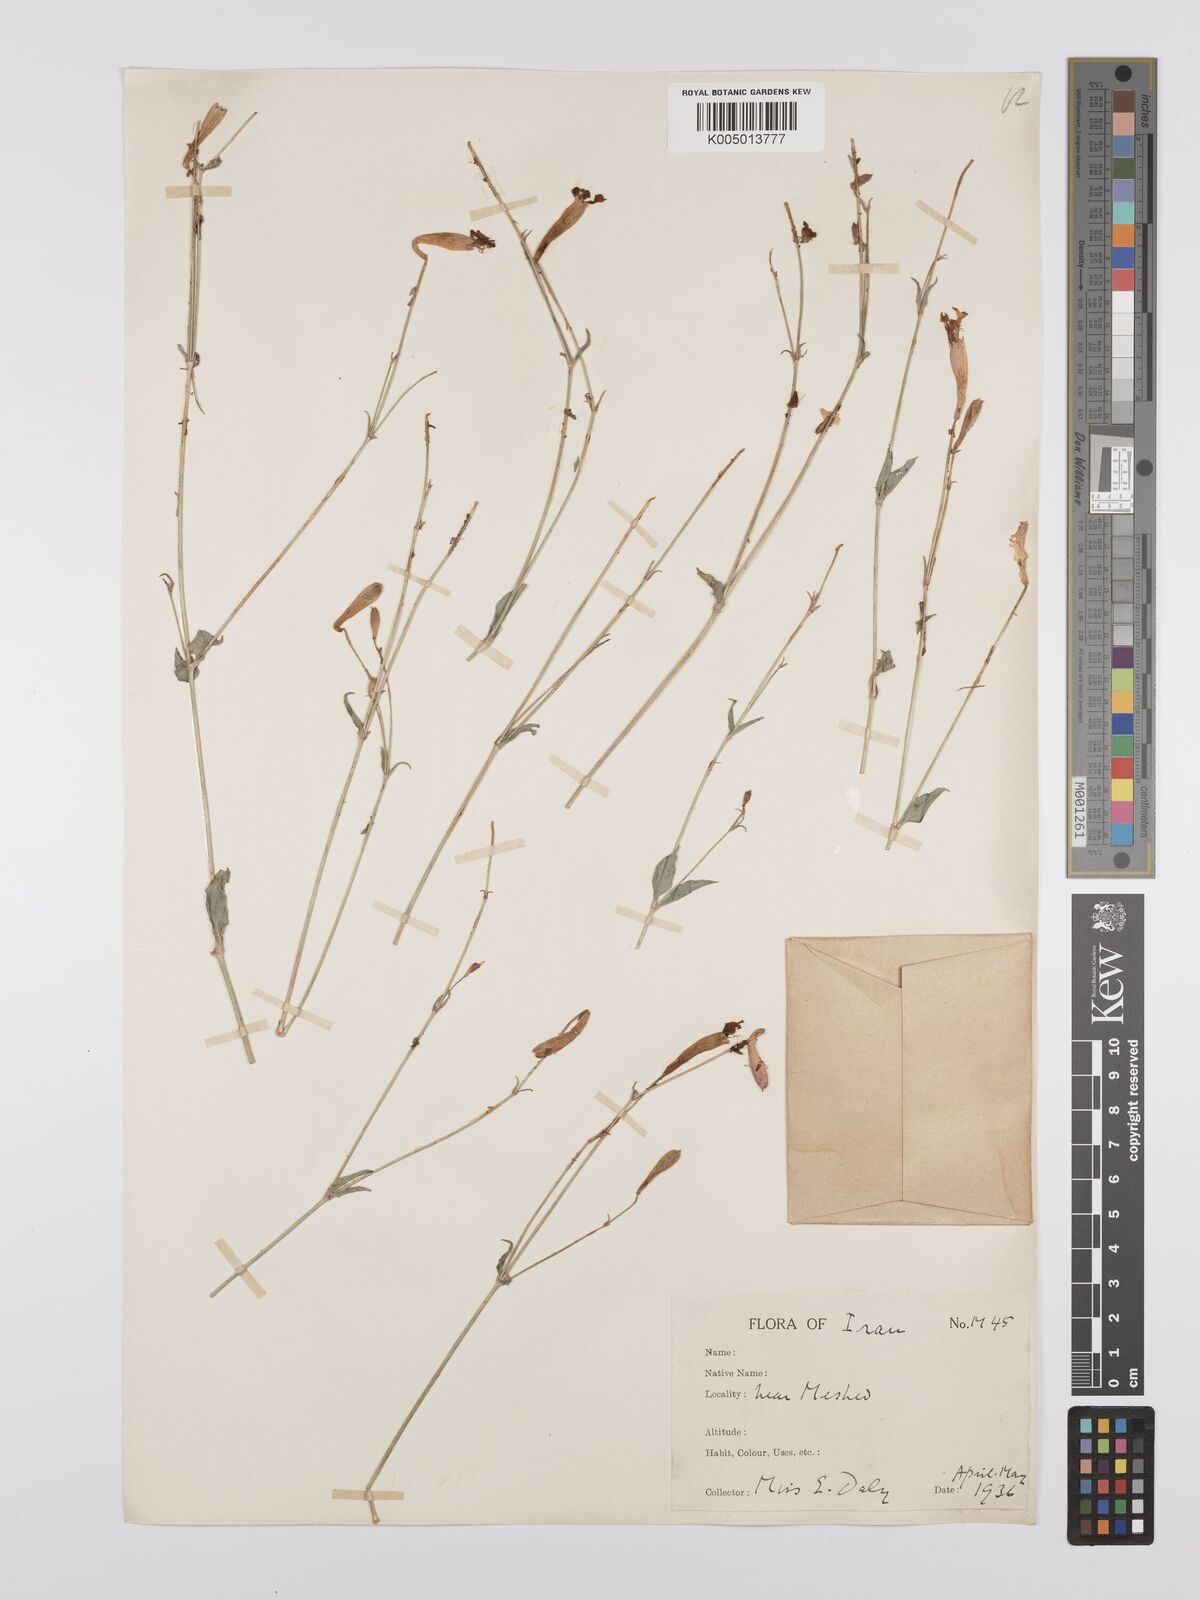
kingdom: Plantae
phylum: Tracheophyta
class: Magnoliopsida
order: Caryophyllales
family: Caryophyllaceae
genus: Silene
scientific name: Silene swertiifolia
